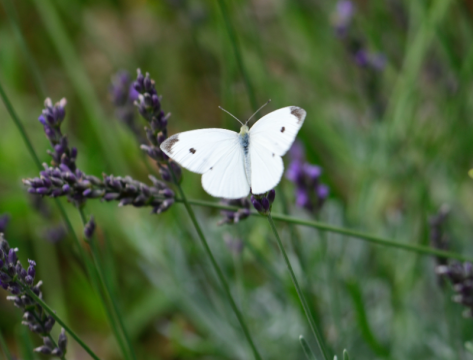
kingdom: Animalia
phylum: Arthropoda
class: Insecta
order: Lepidoptera
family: Pieridae
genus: Pieris
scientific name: Pieris rapae
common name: Cabbage White
